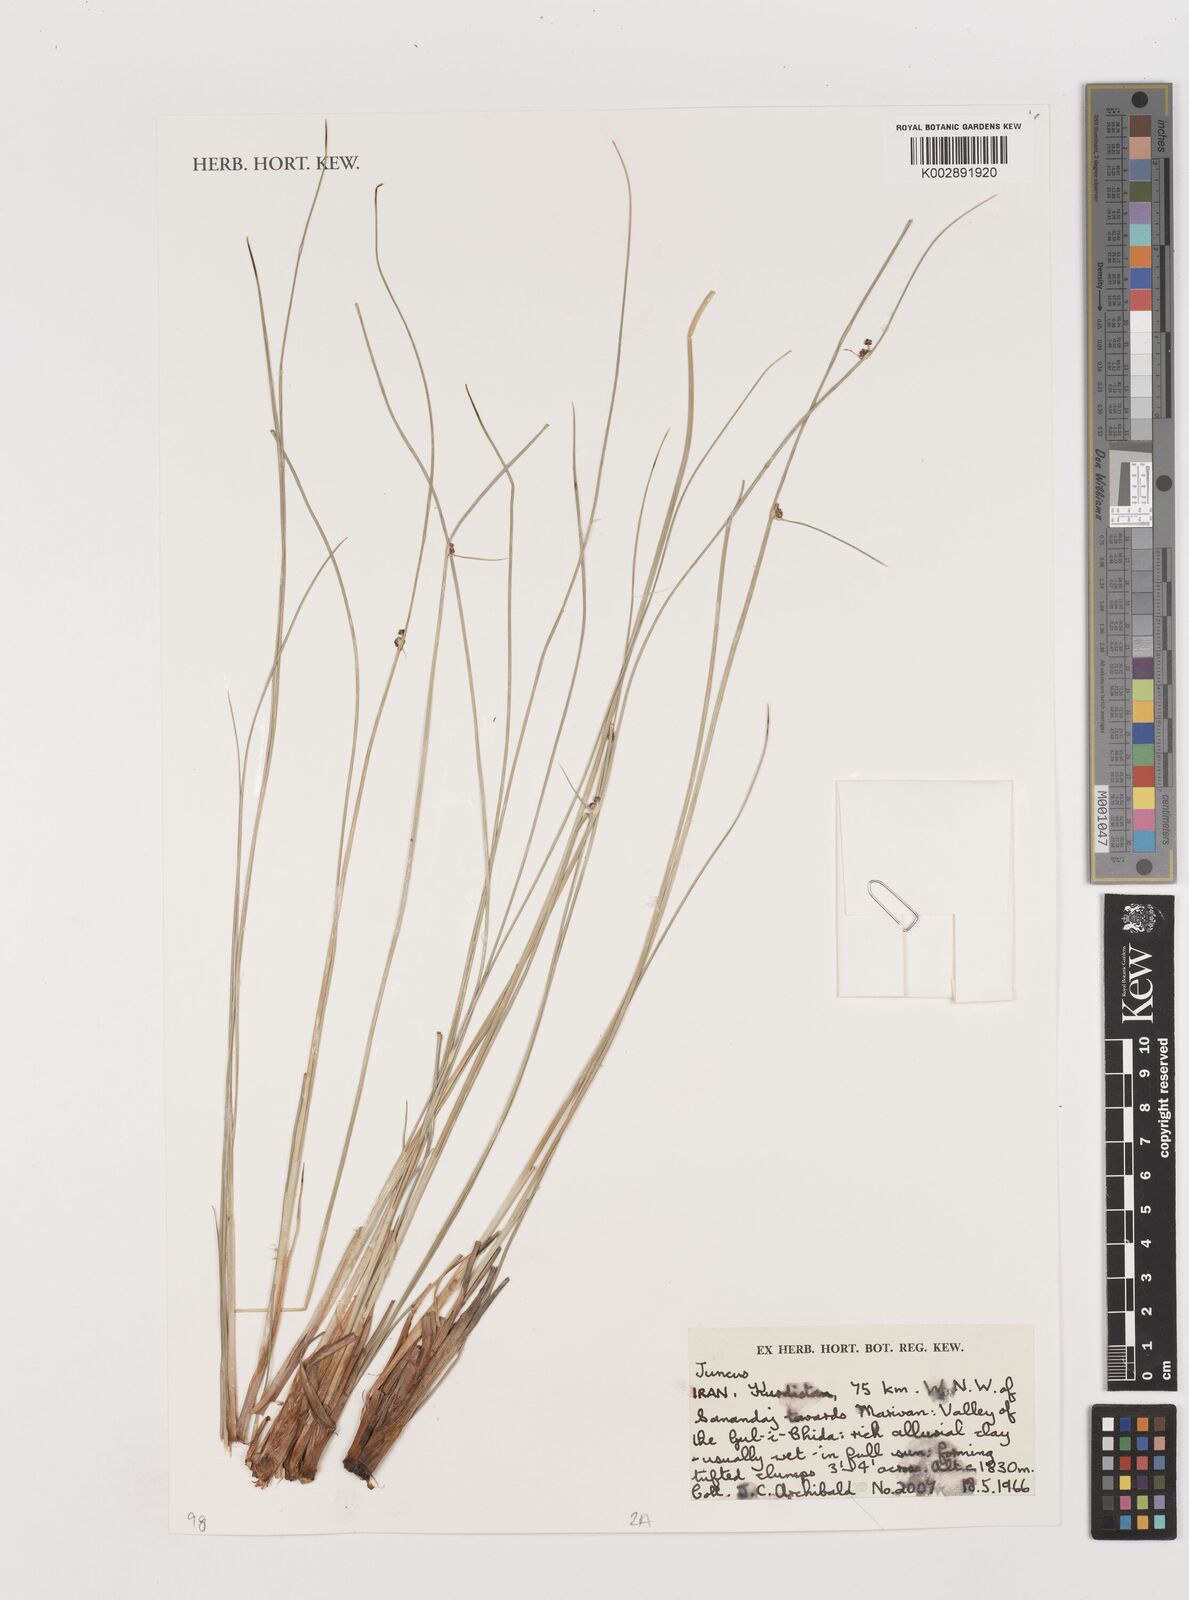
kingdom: Plantae
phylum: Tracheophyta
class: Liliopsida
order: Poales
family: Juncaceae
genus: Juncus
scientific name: Juncus
